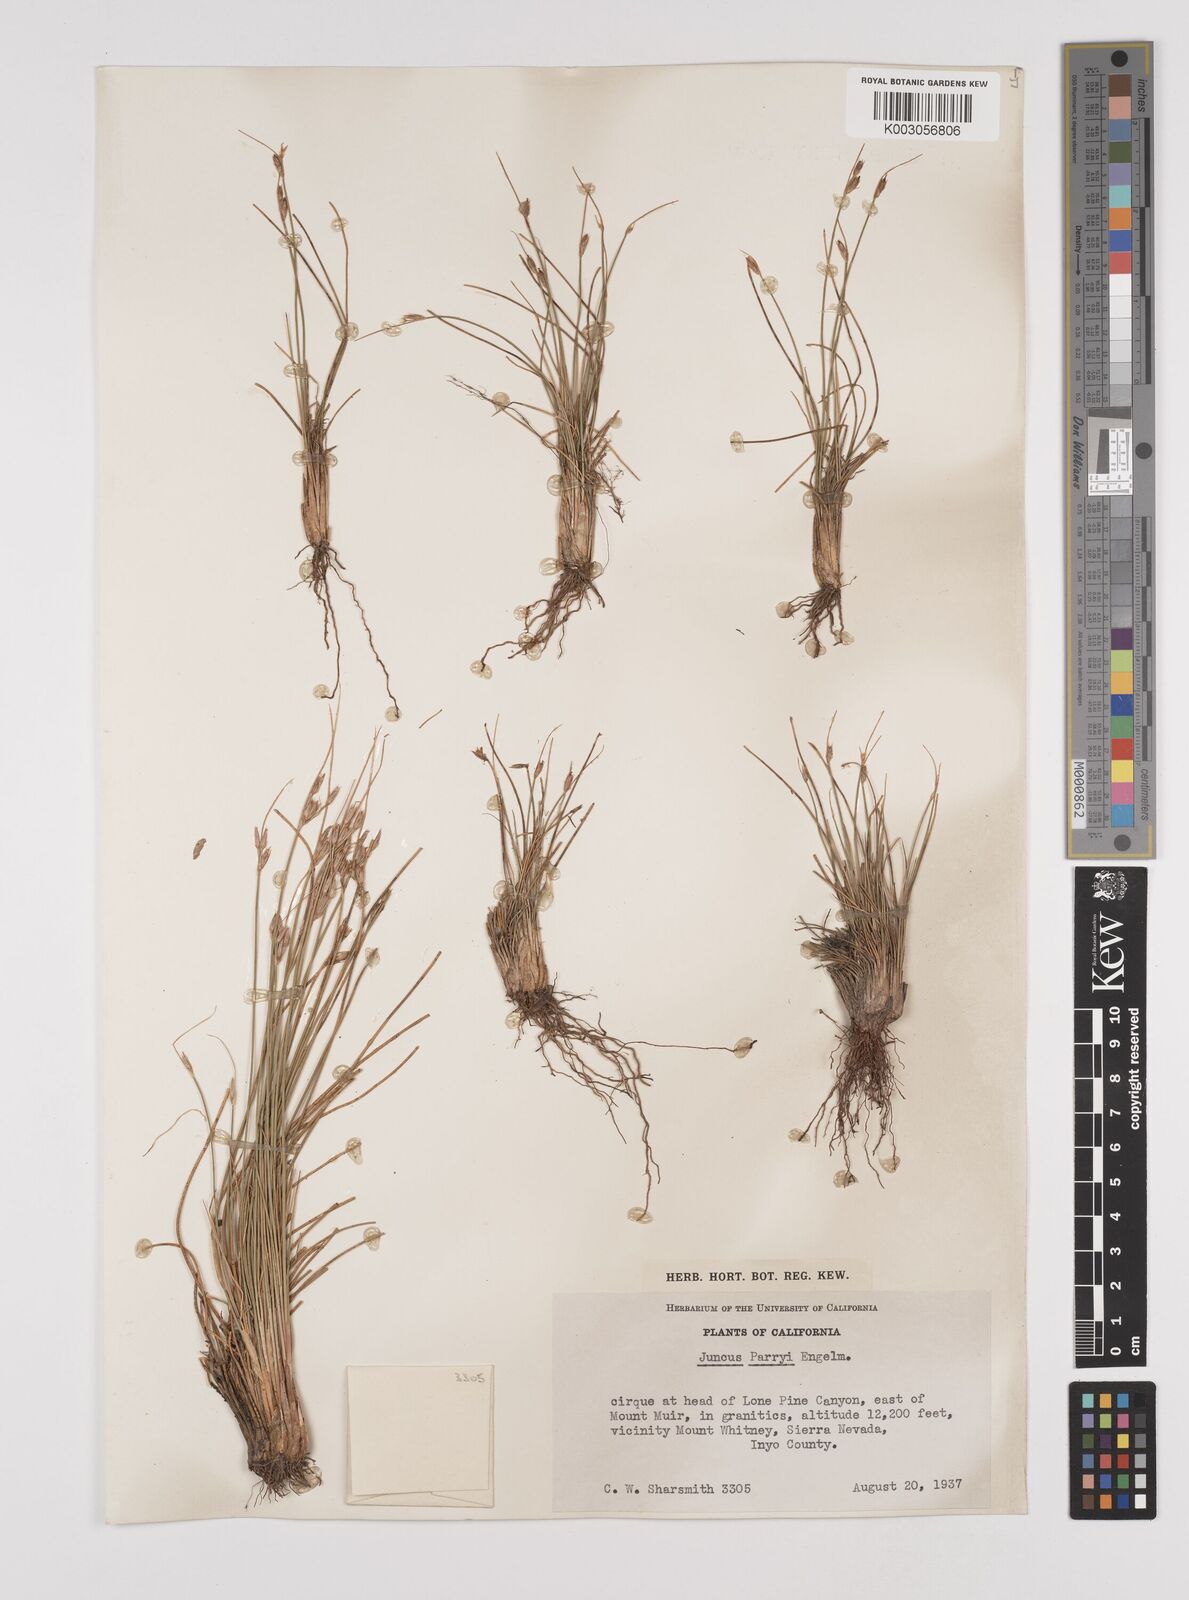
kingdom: Plantae
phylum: Tracheophyta
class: Liliopsida
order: Poales
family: Juncaceae
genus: Juncus
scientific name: Juncus parryi
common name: Parry's rush
